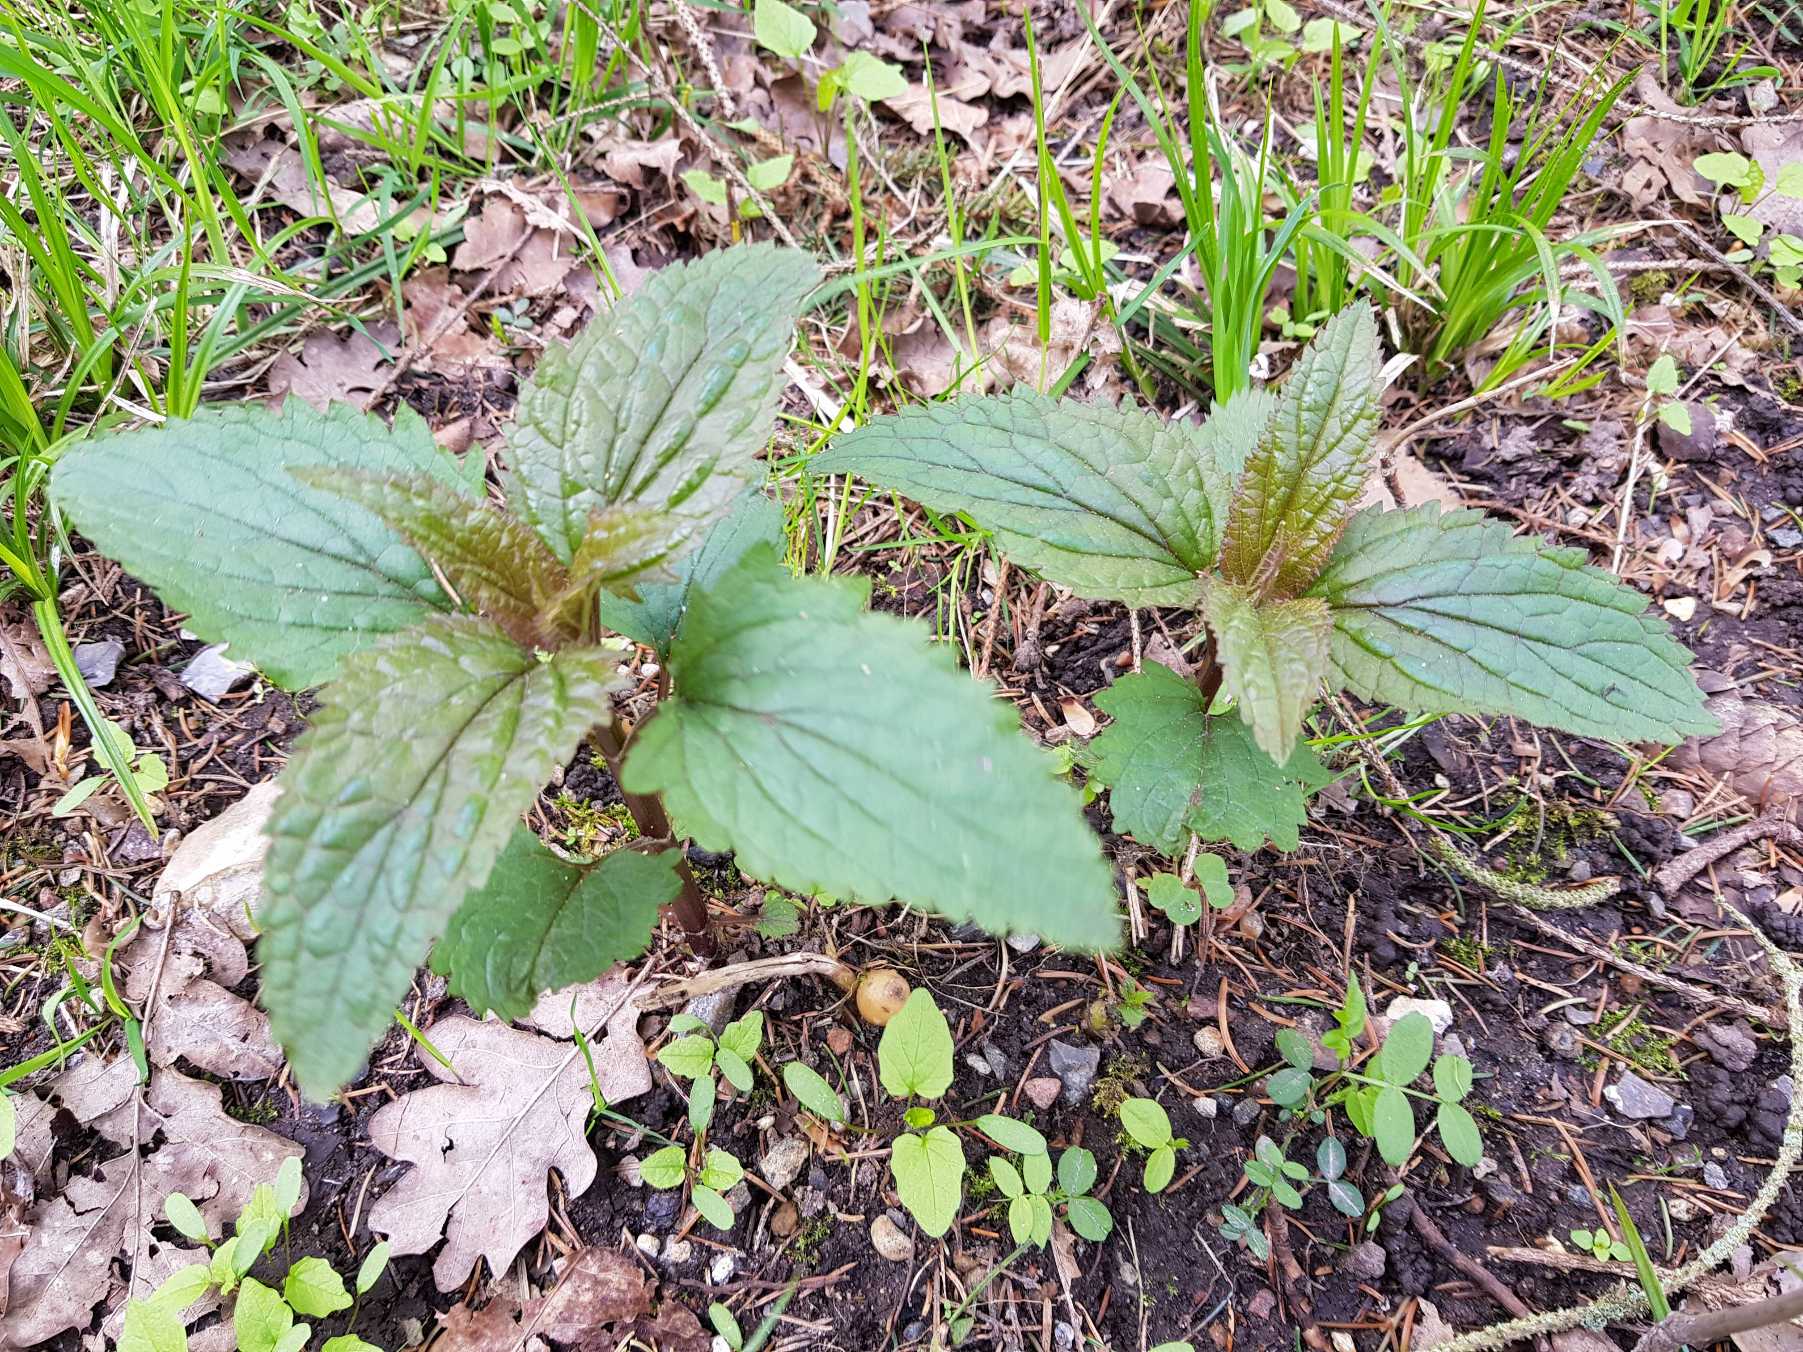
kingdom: Plantae
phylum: Tracheophyta
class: Magnoliopsida
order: Lamiales
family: Scrophulariaceae
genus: Scrophularia
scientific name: Scrophularia nodosa
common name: Knoldet brunrod
